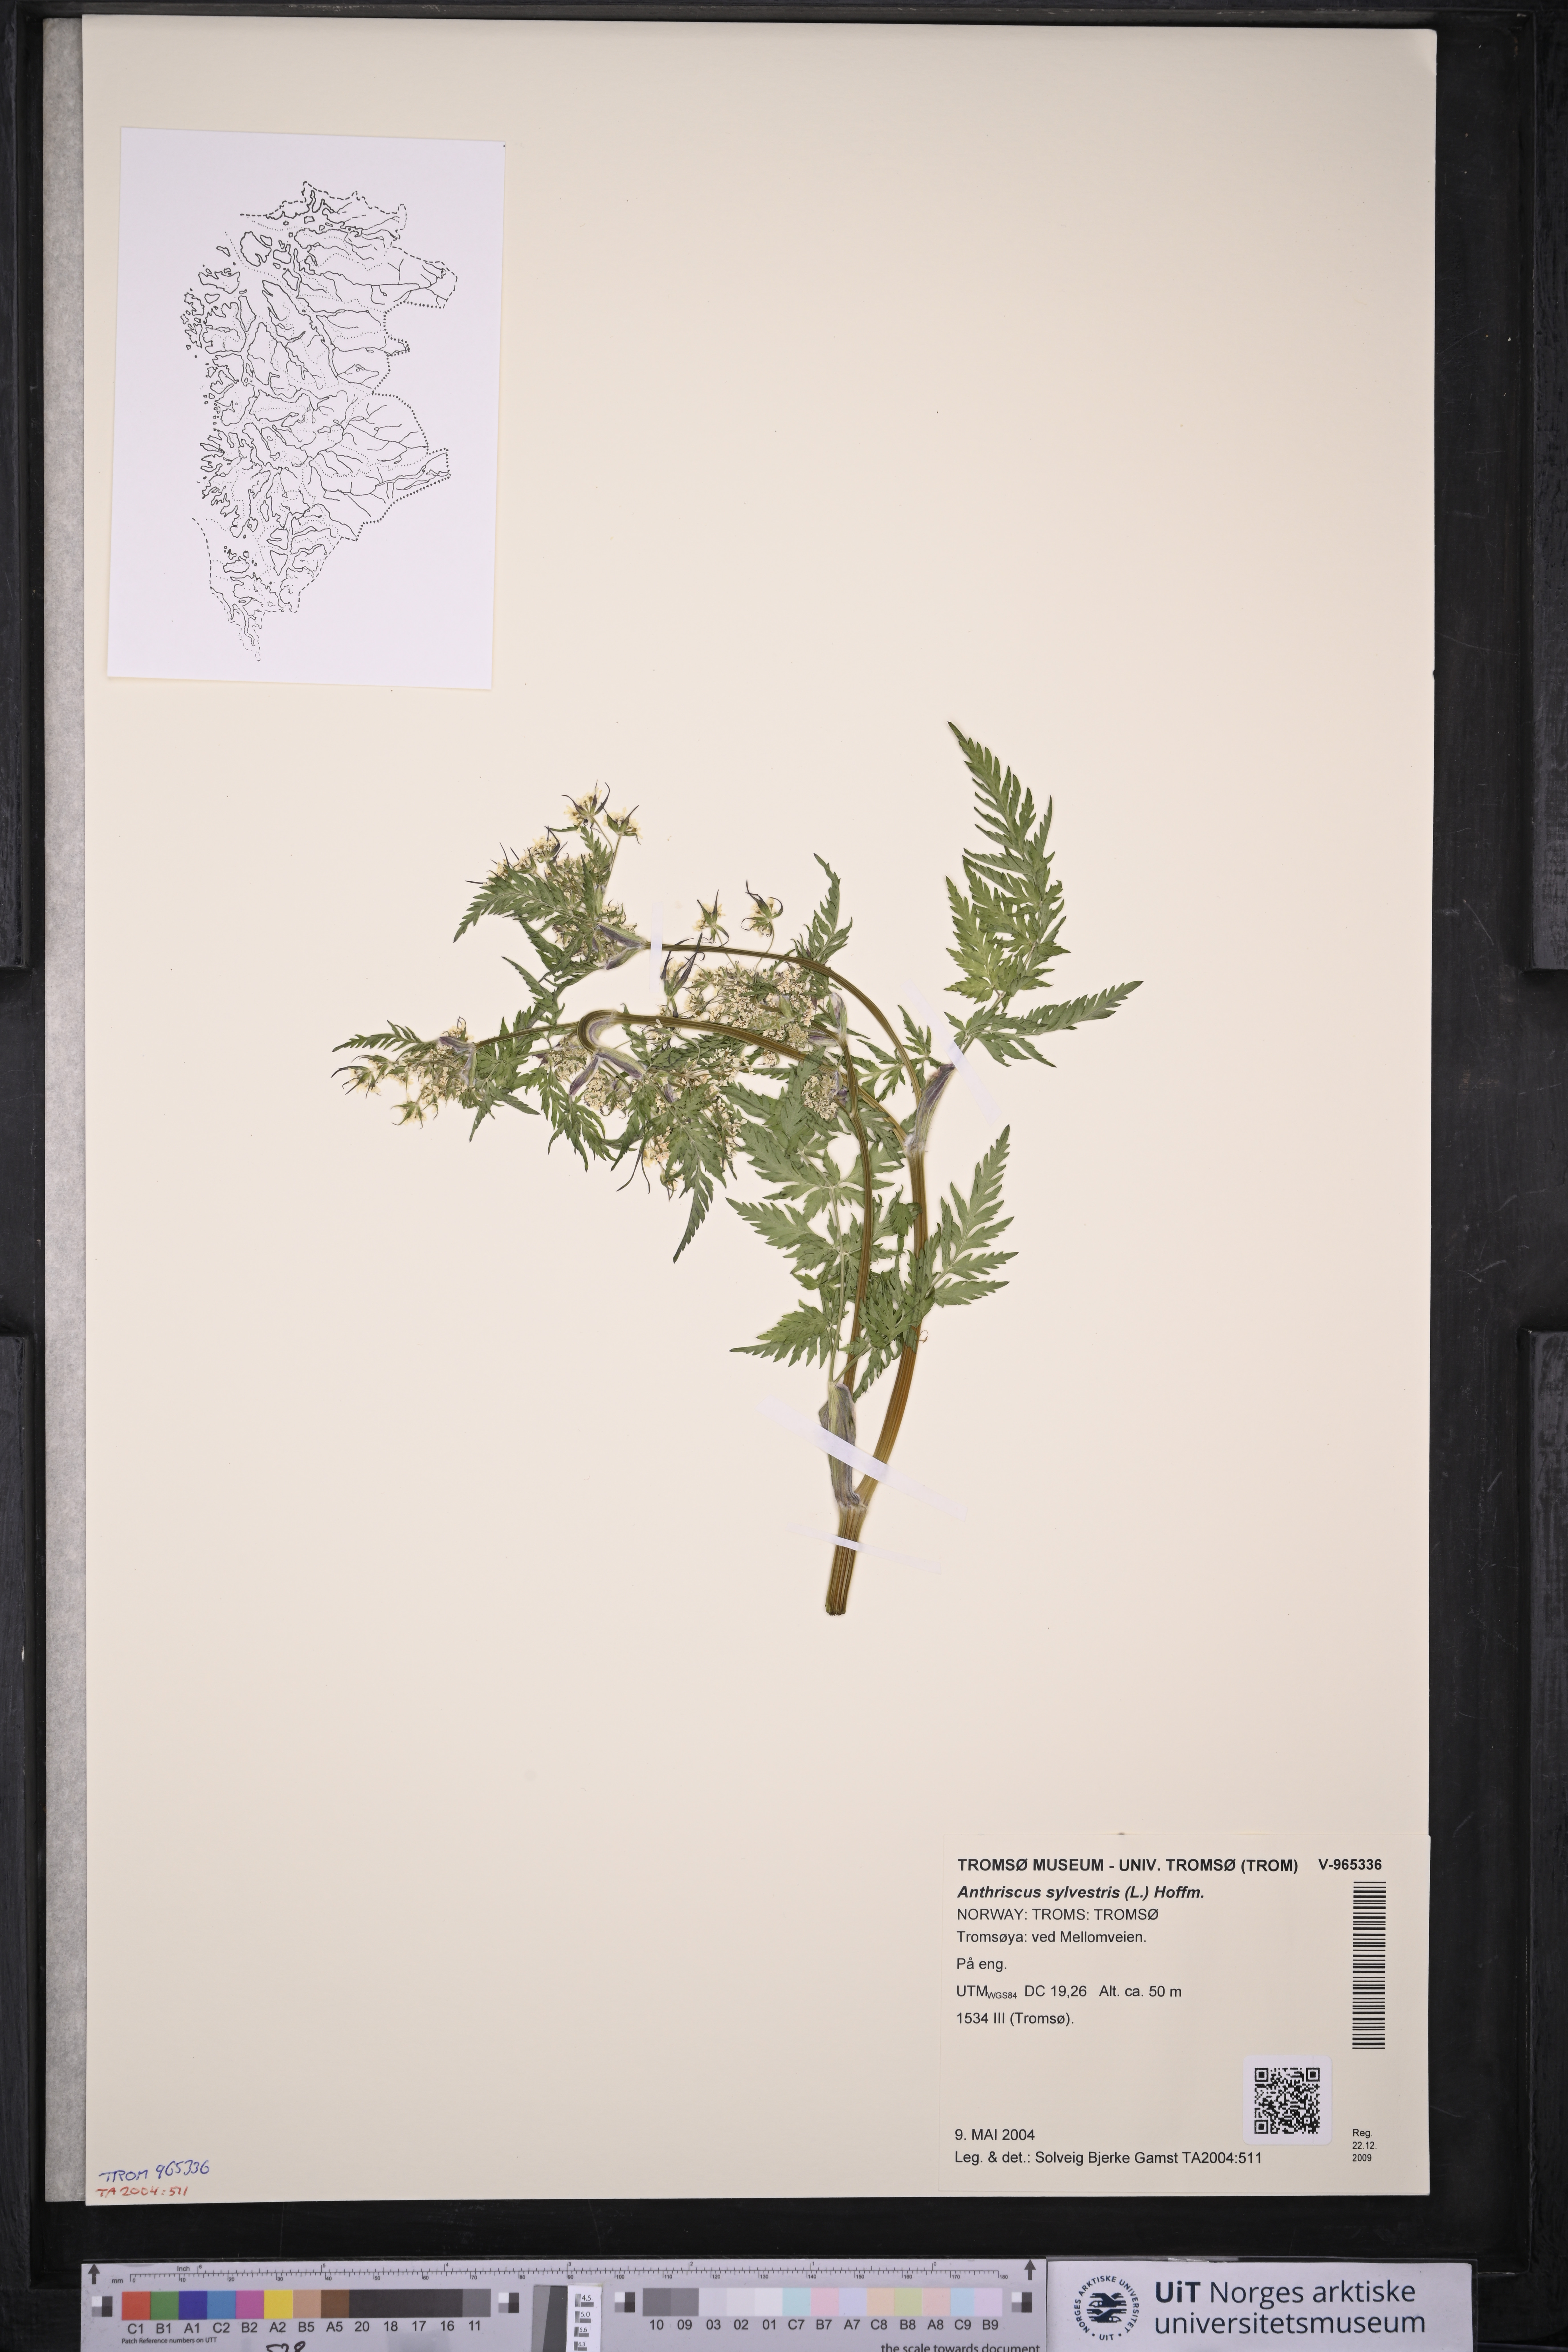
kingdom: Plantae
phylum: Tracheophyta
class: Magnoliopsida
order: Apiales
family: Apiaceae
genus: Anthriscus
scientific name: Anthriscus sylvestris
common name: Cow parsley
